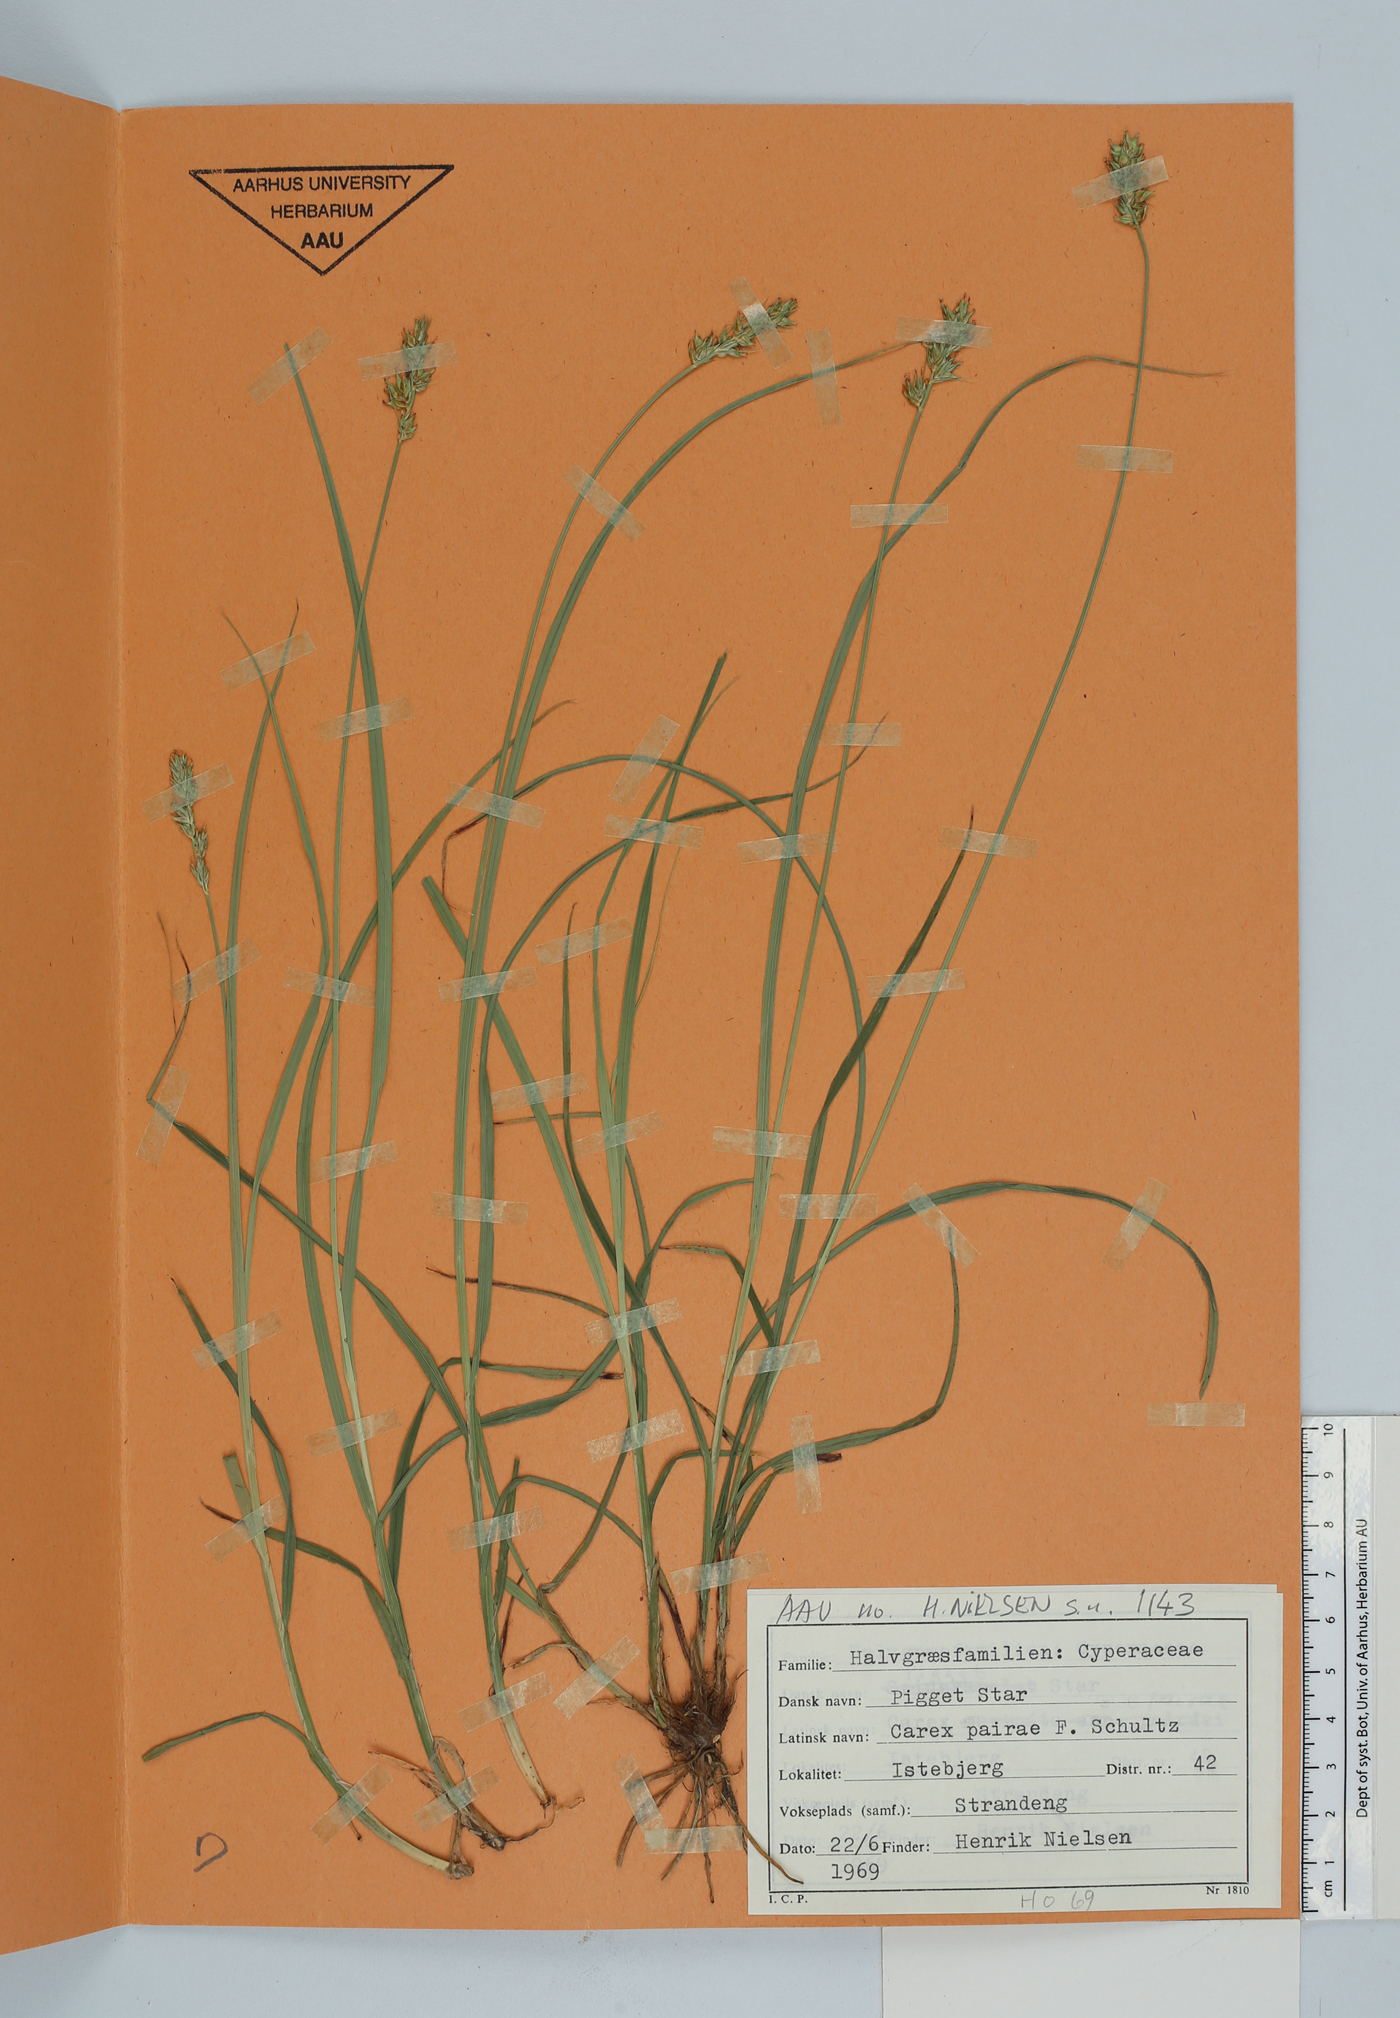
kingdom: Plantae
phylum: Tracheophyta
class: Liliopsida
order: Poales
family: Cyperaceae
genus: Carex
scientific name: Carex pairae
